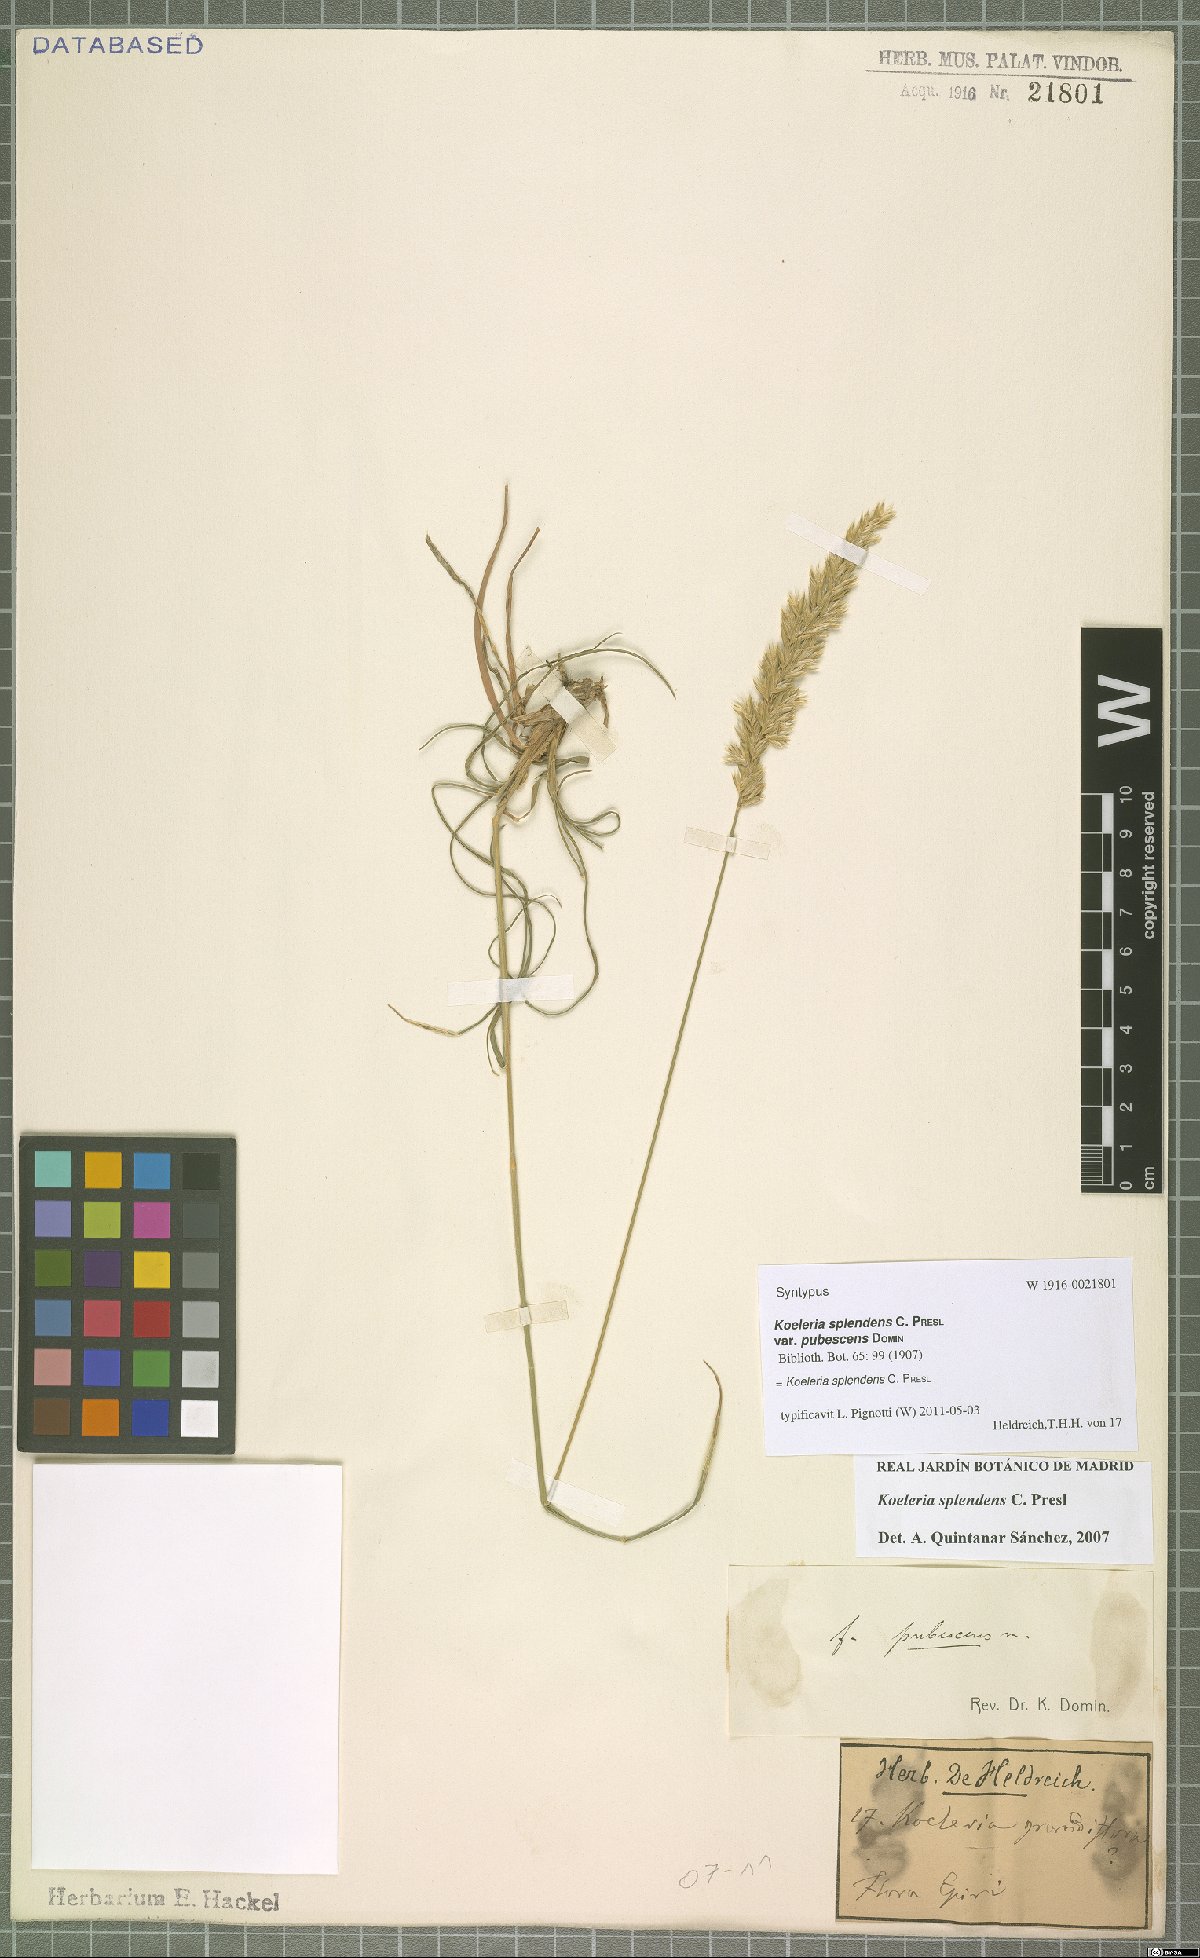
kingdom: Plantae
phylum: Tracheophyta
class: Liliopsida
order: Poales
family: Poaceae
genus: Koeleria
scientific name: Koeleria splendens
